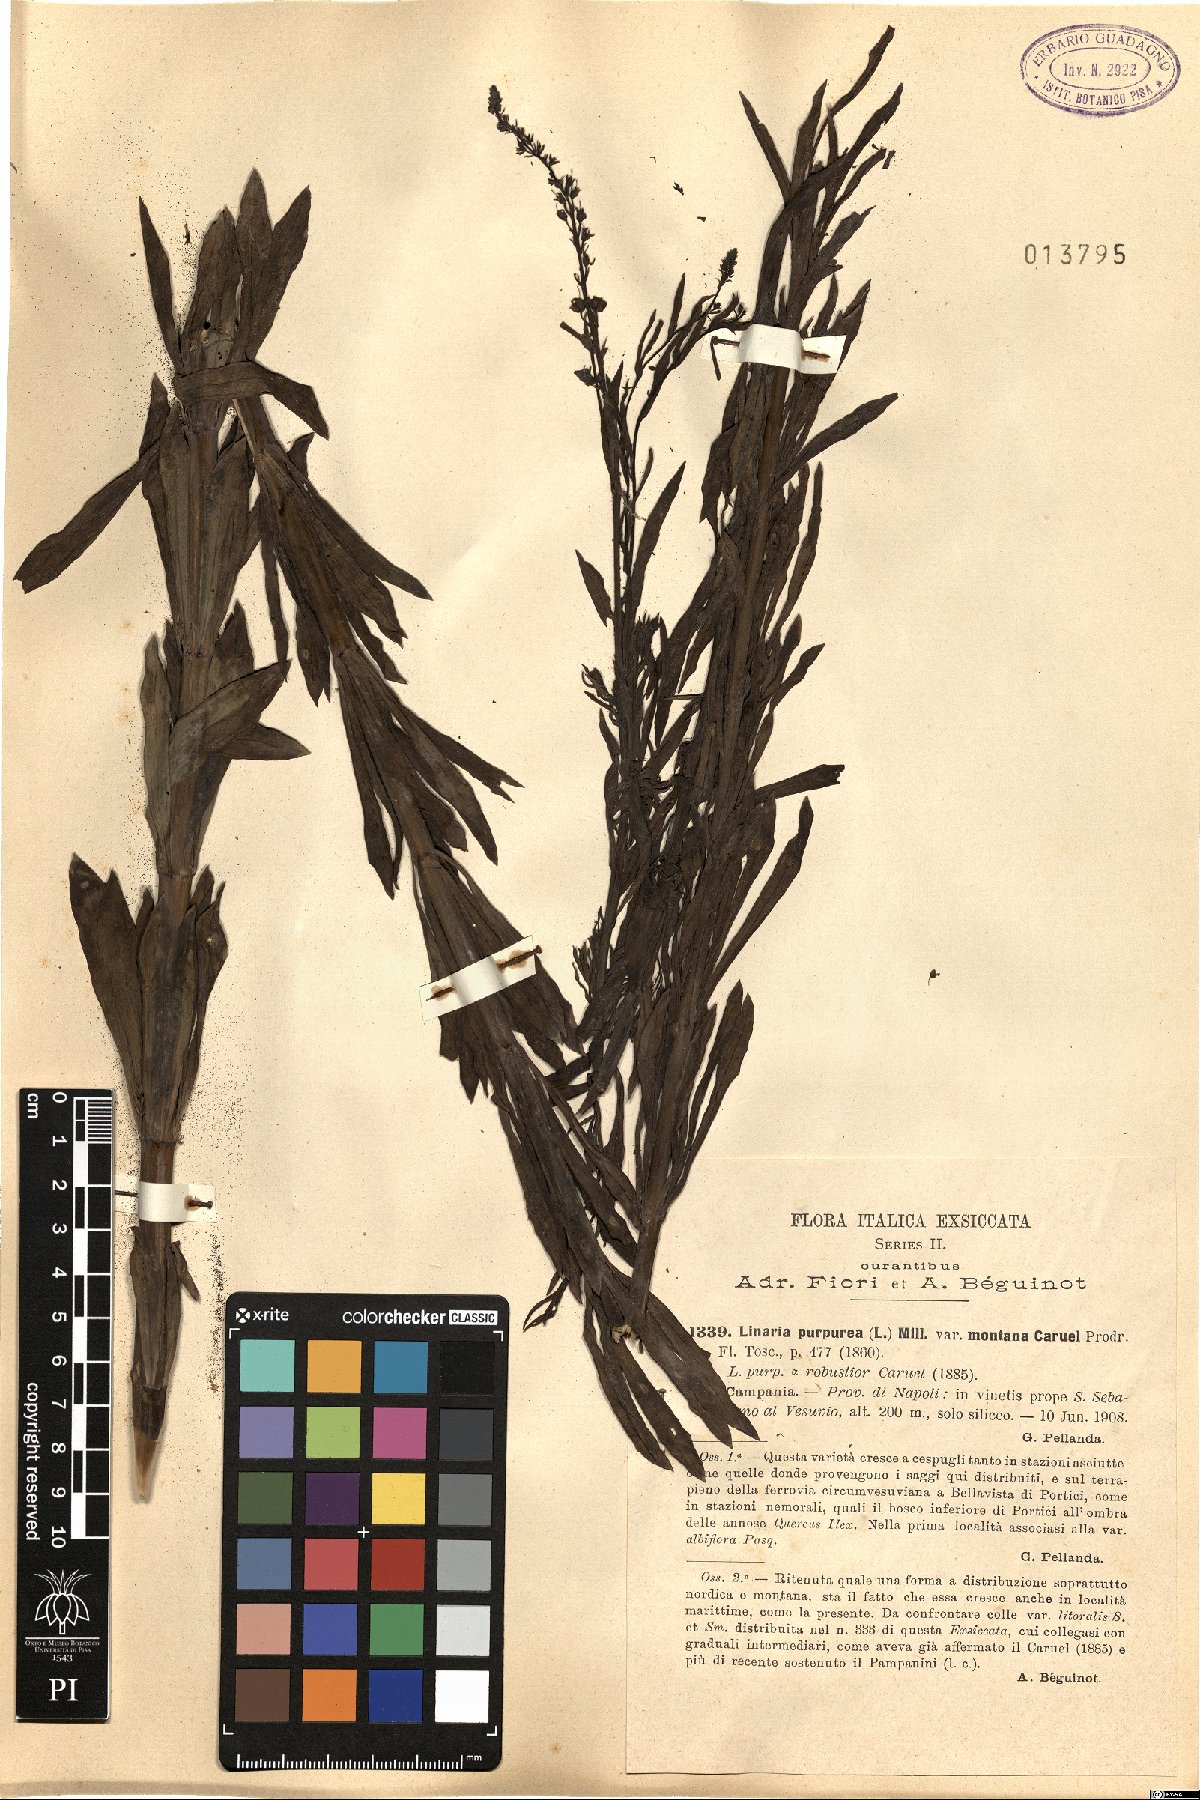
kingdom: Plantae
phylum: Tracheophyta
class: Magnoliopsida
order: Lamiales
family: Plantaginaceae
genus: Linaria
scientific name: Linaria purpurea
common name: Purple toadflax
